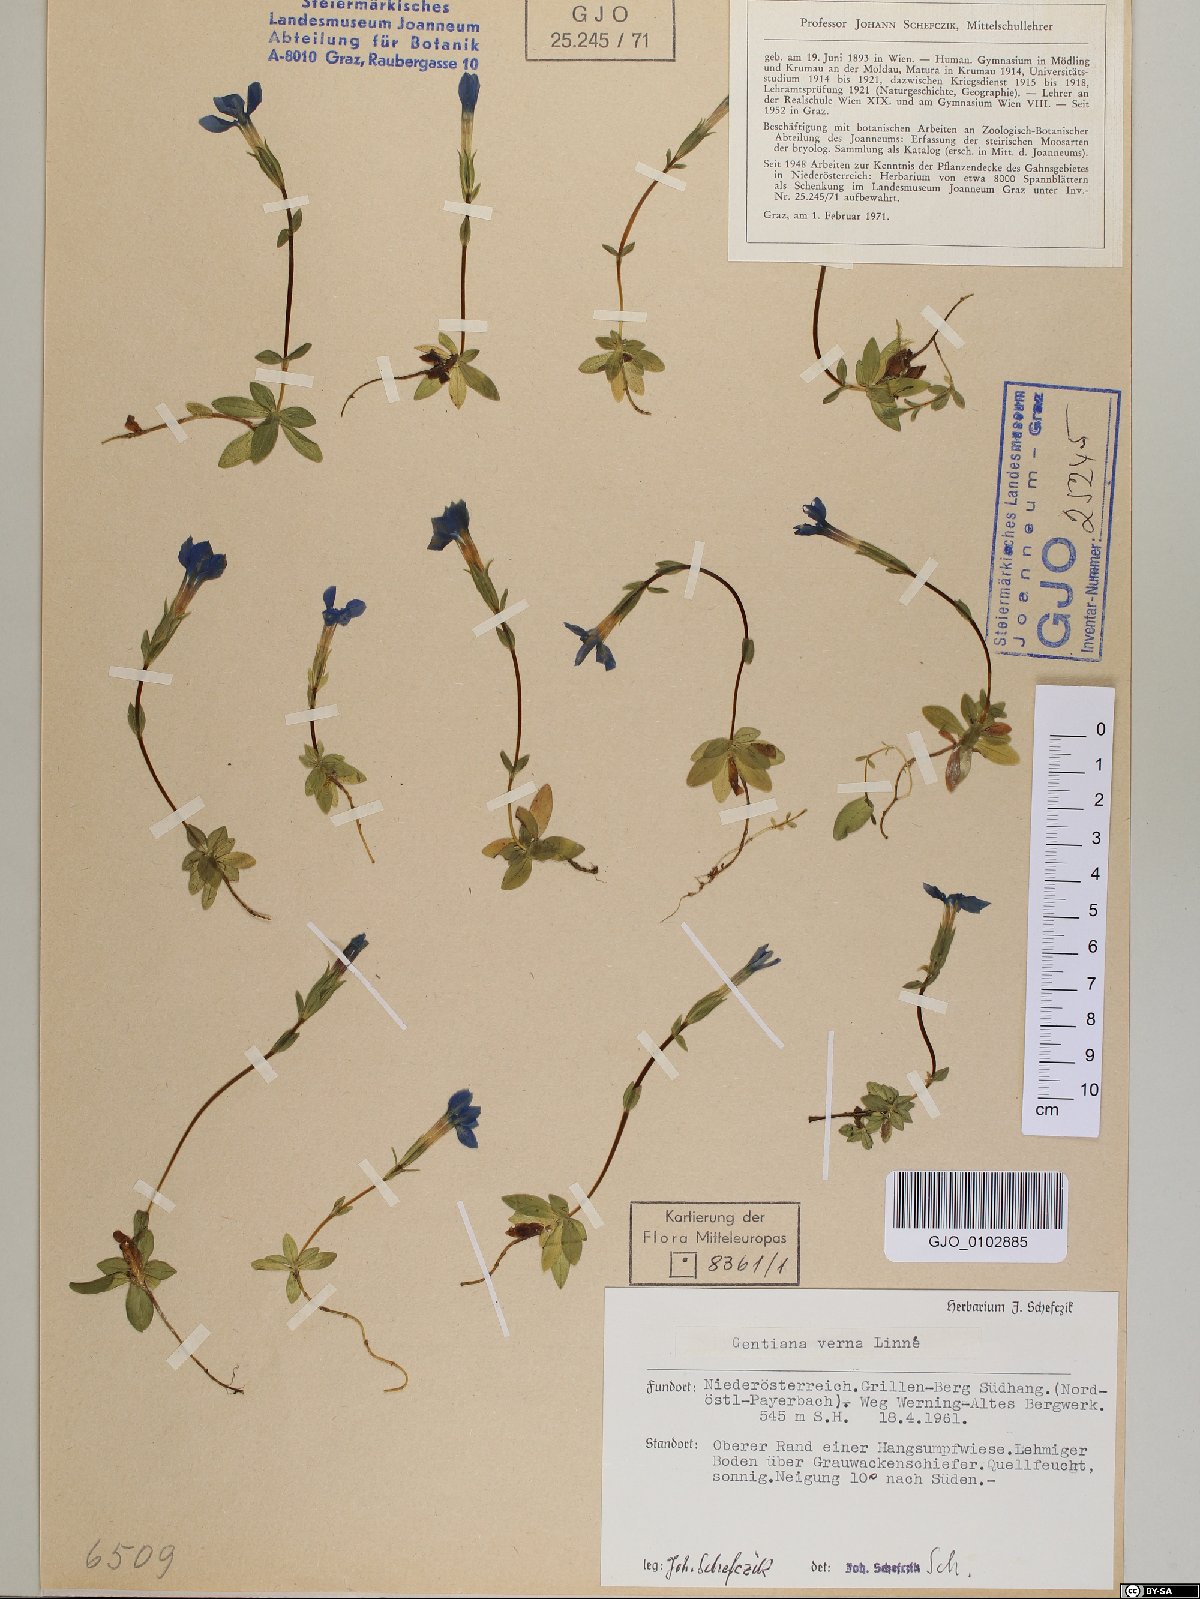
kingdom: Plantae
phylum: Tracheophyta
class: Magnoliopsida
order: Gentianales
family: Gentianaceae
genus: Gentiana
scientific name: Gentiana verna
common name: Spring gentian
